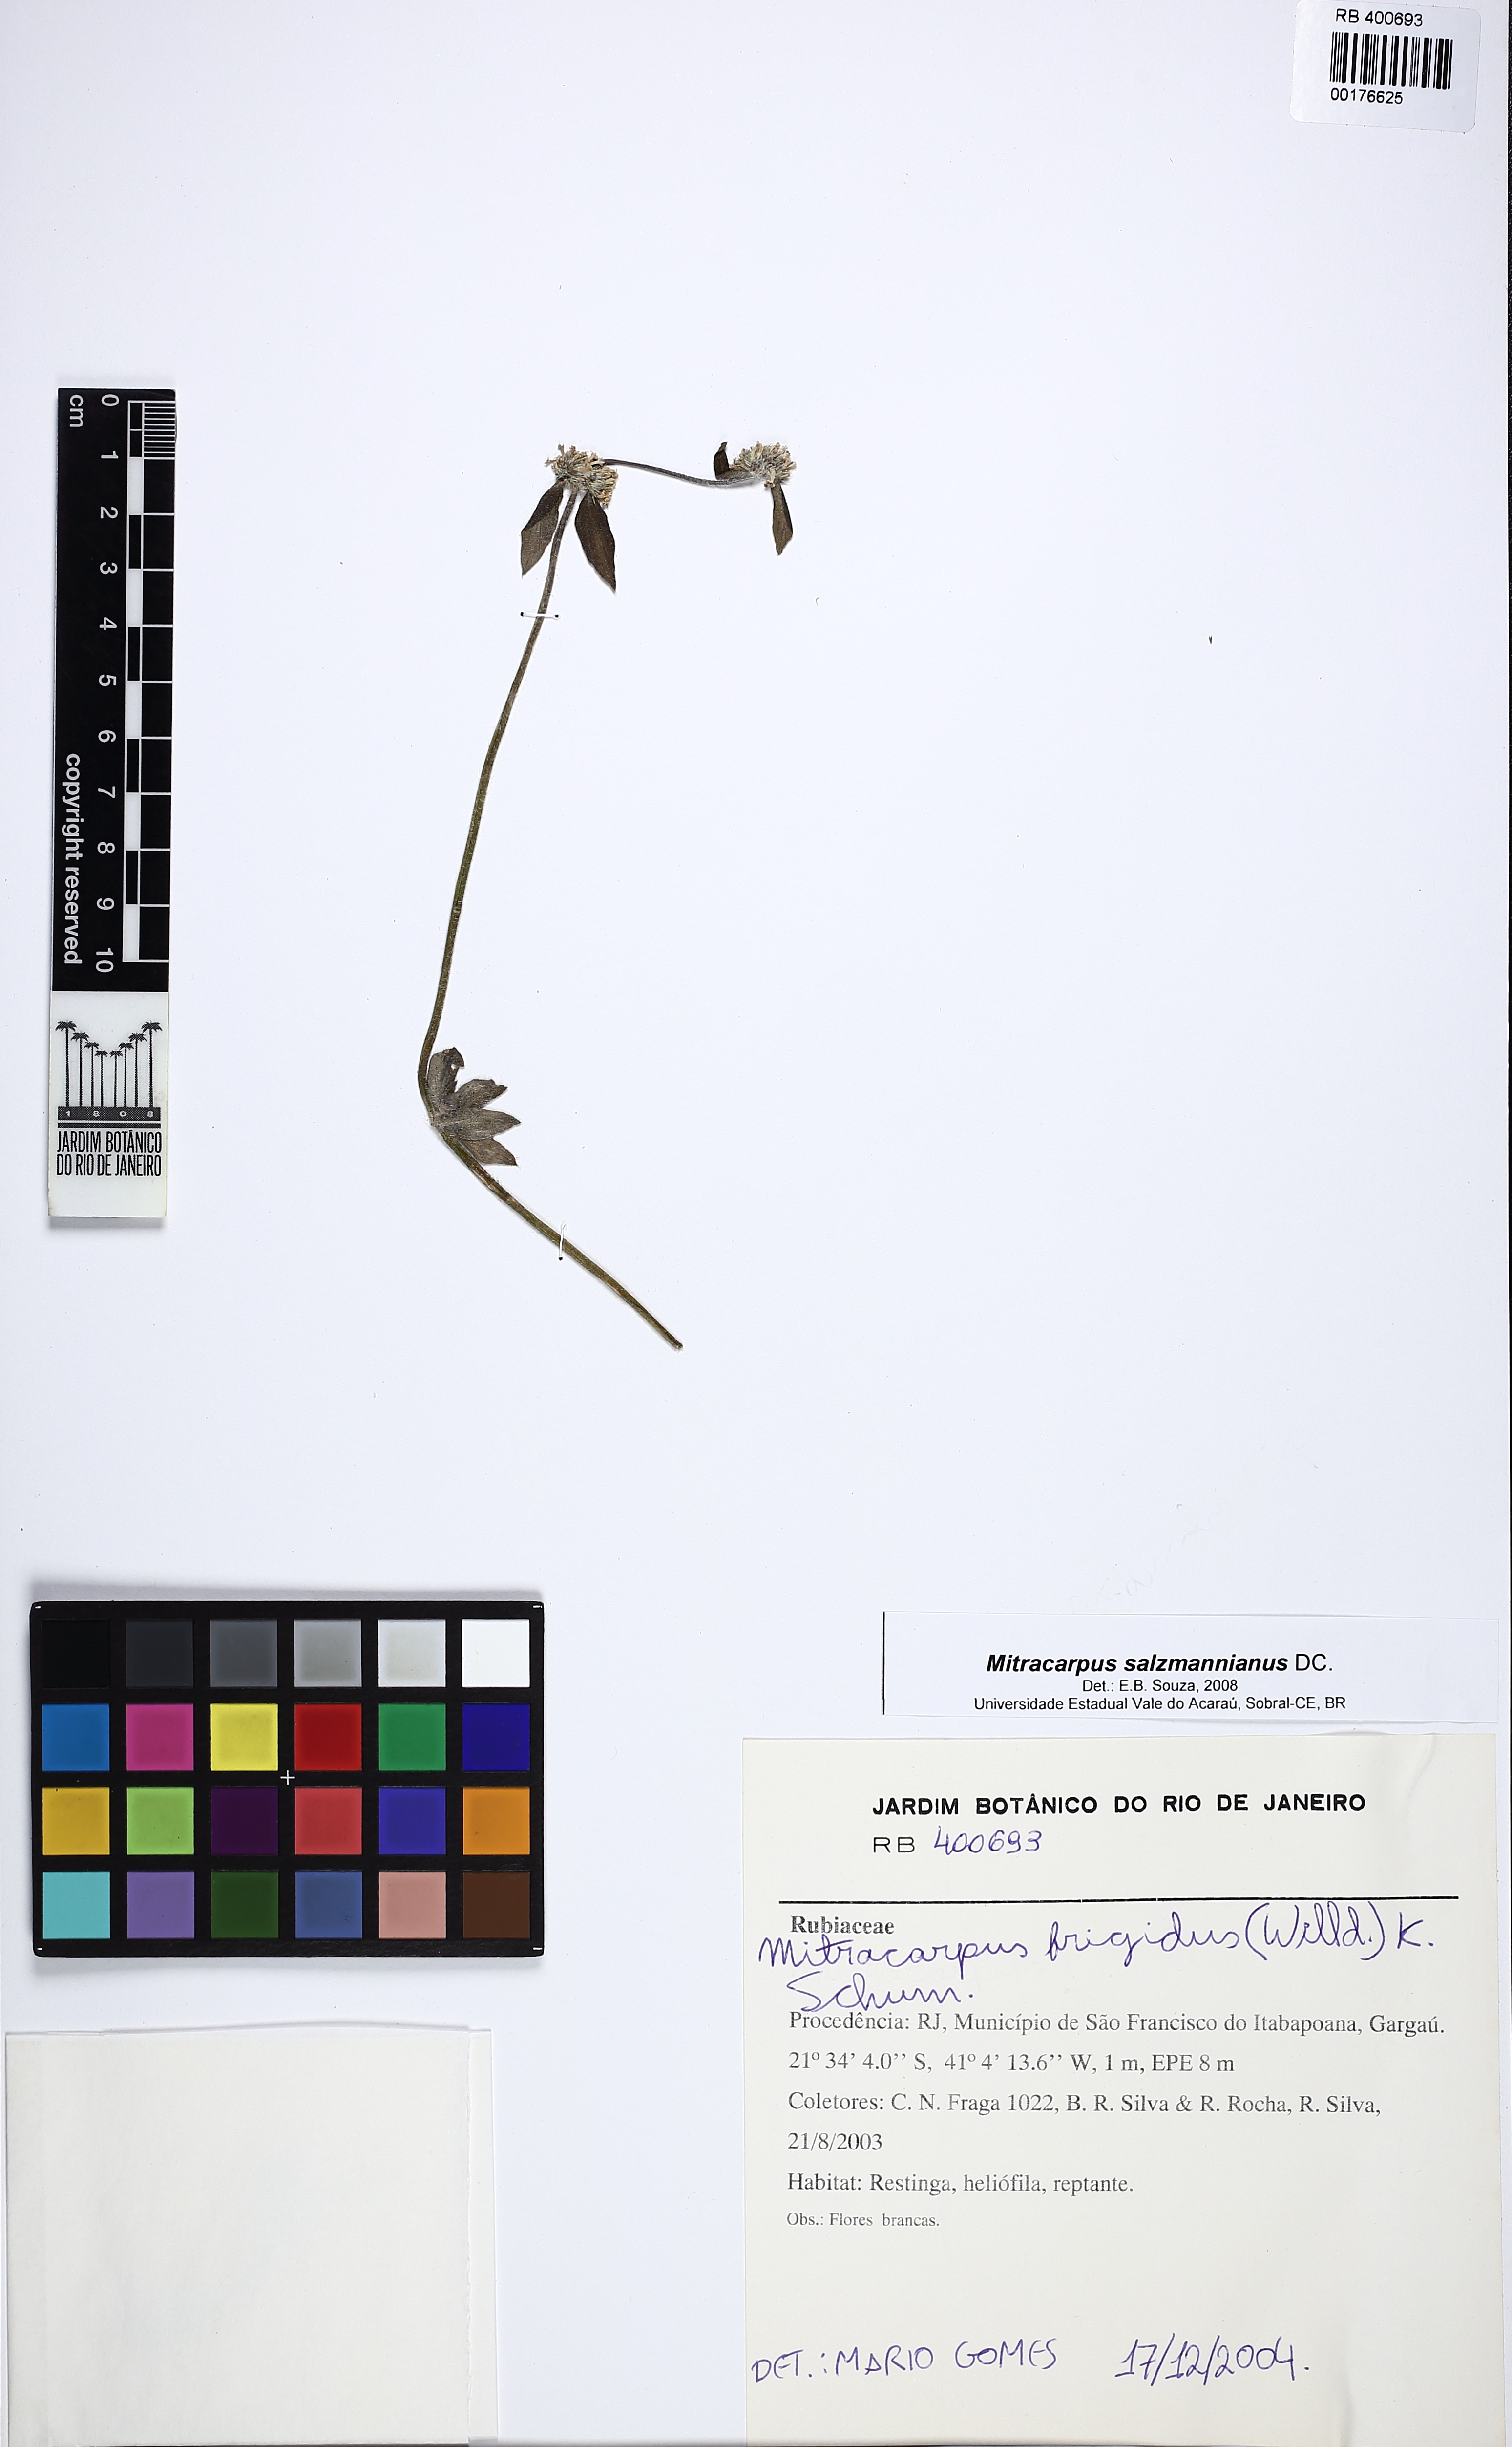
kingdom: Plantae
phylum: Tracheophyta
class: Magnoliopsida
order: Gentianales
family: Rubiaceae
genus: Mitracarpus
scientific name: Mitracarpus salzmannianus
